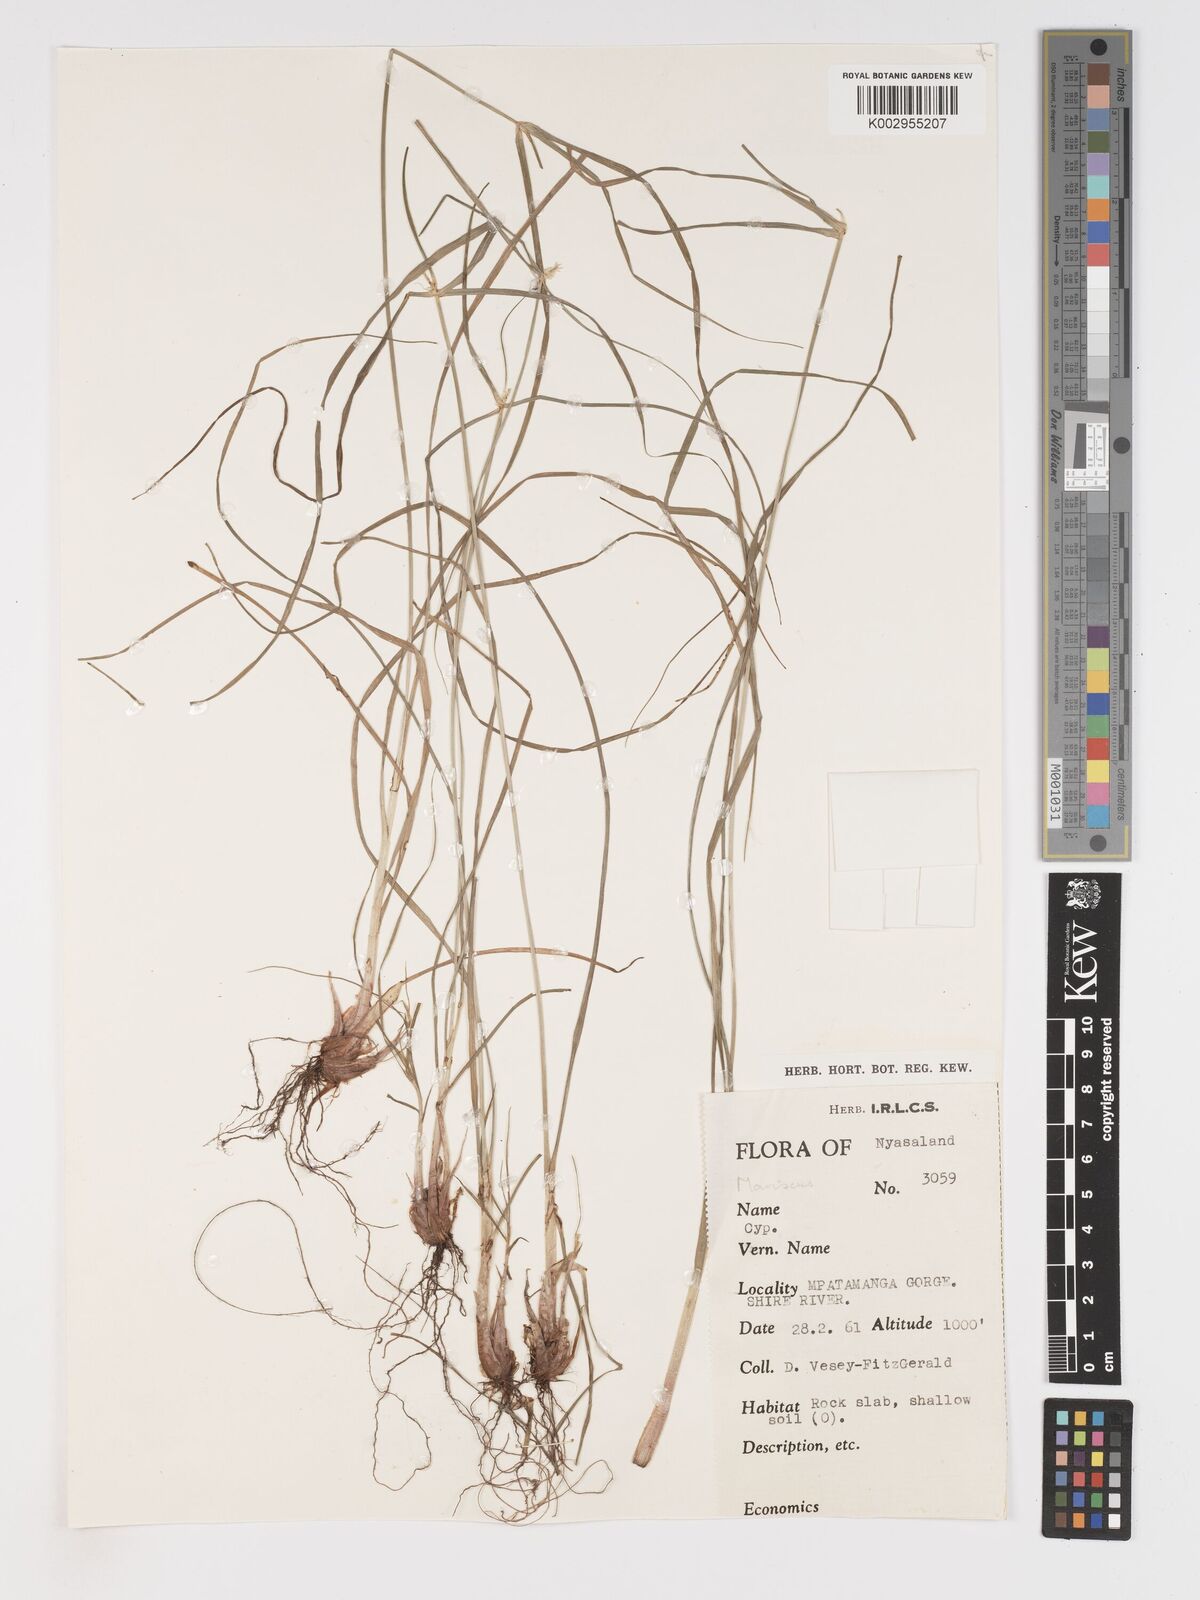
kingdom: Plantae
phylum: Tracheophyta
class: Liliopsida
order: Poales
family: Cyperaceae
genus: Cyperus
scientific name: Cyperus
